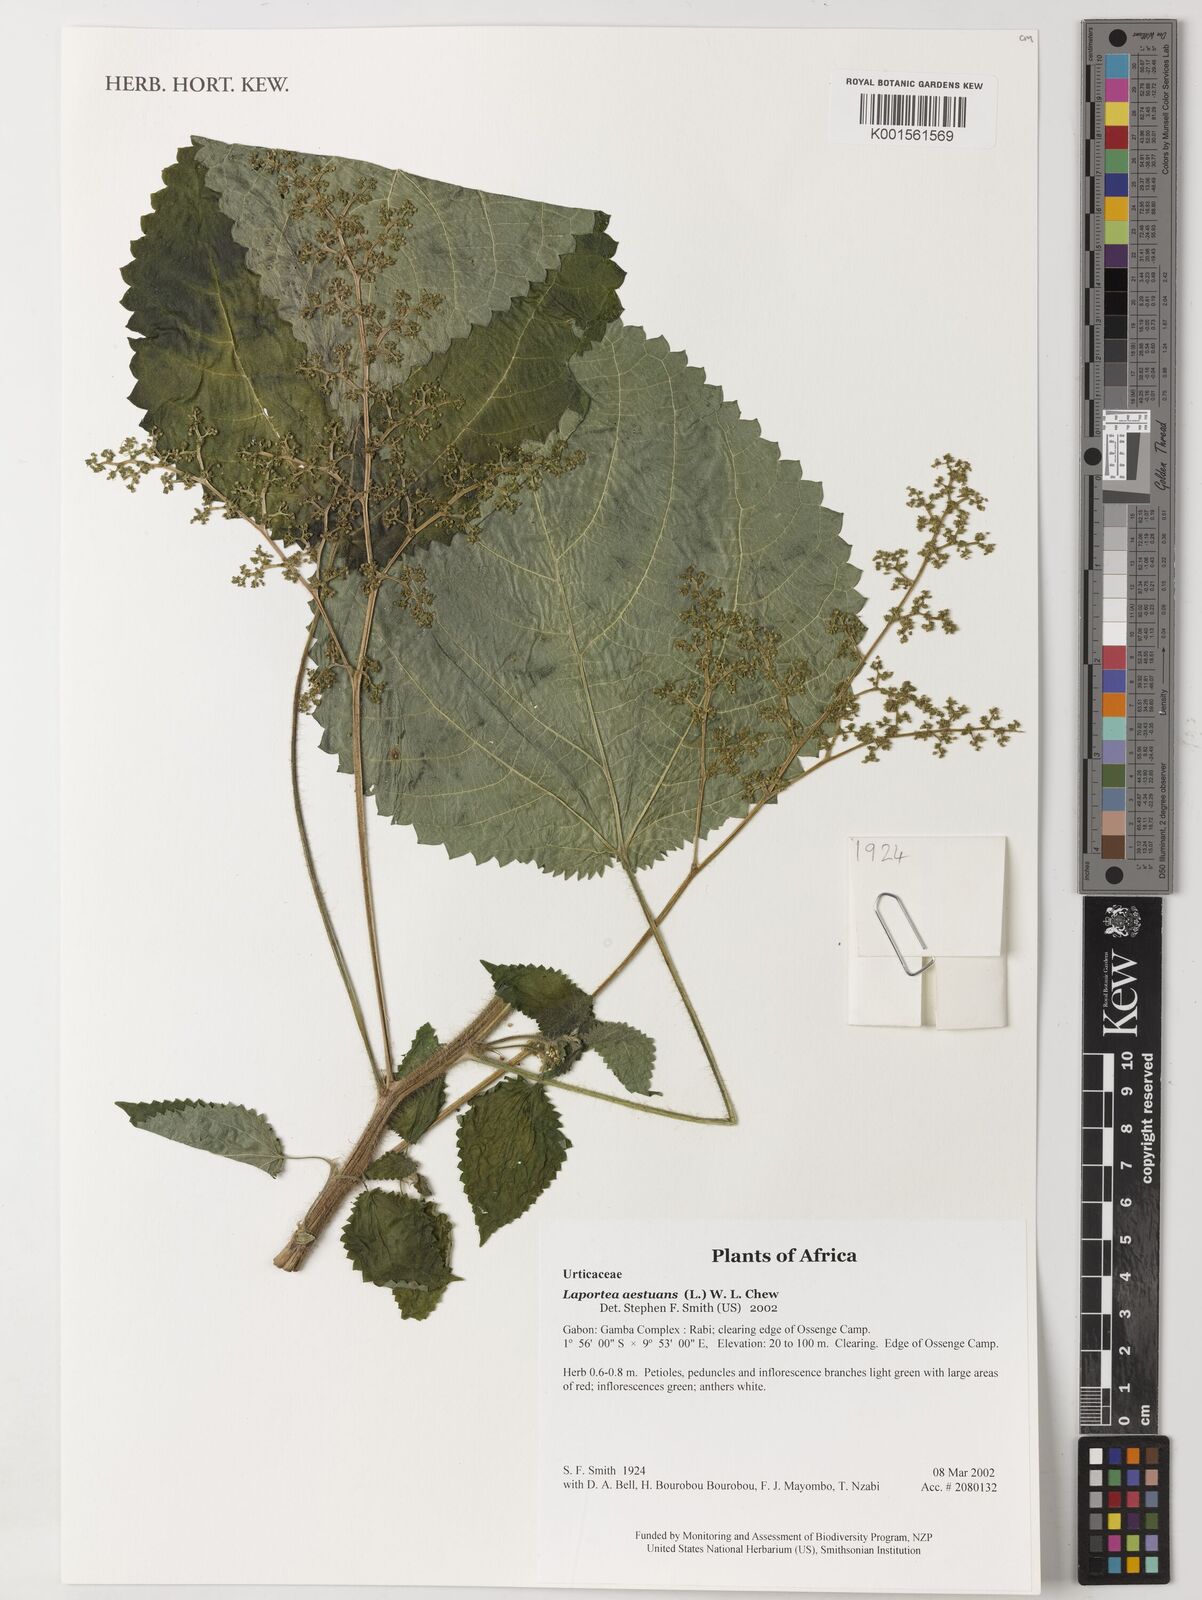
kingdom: Plantae
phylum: Tracheophyta
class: Magnoliopsida
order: Rosales
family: Urticaceae
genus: Laportea
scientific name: Laportea aestuans
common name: West indian woodnettle
